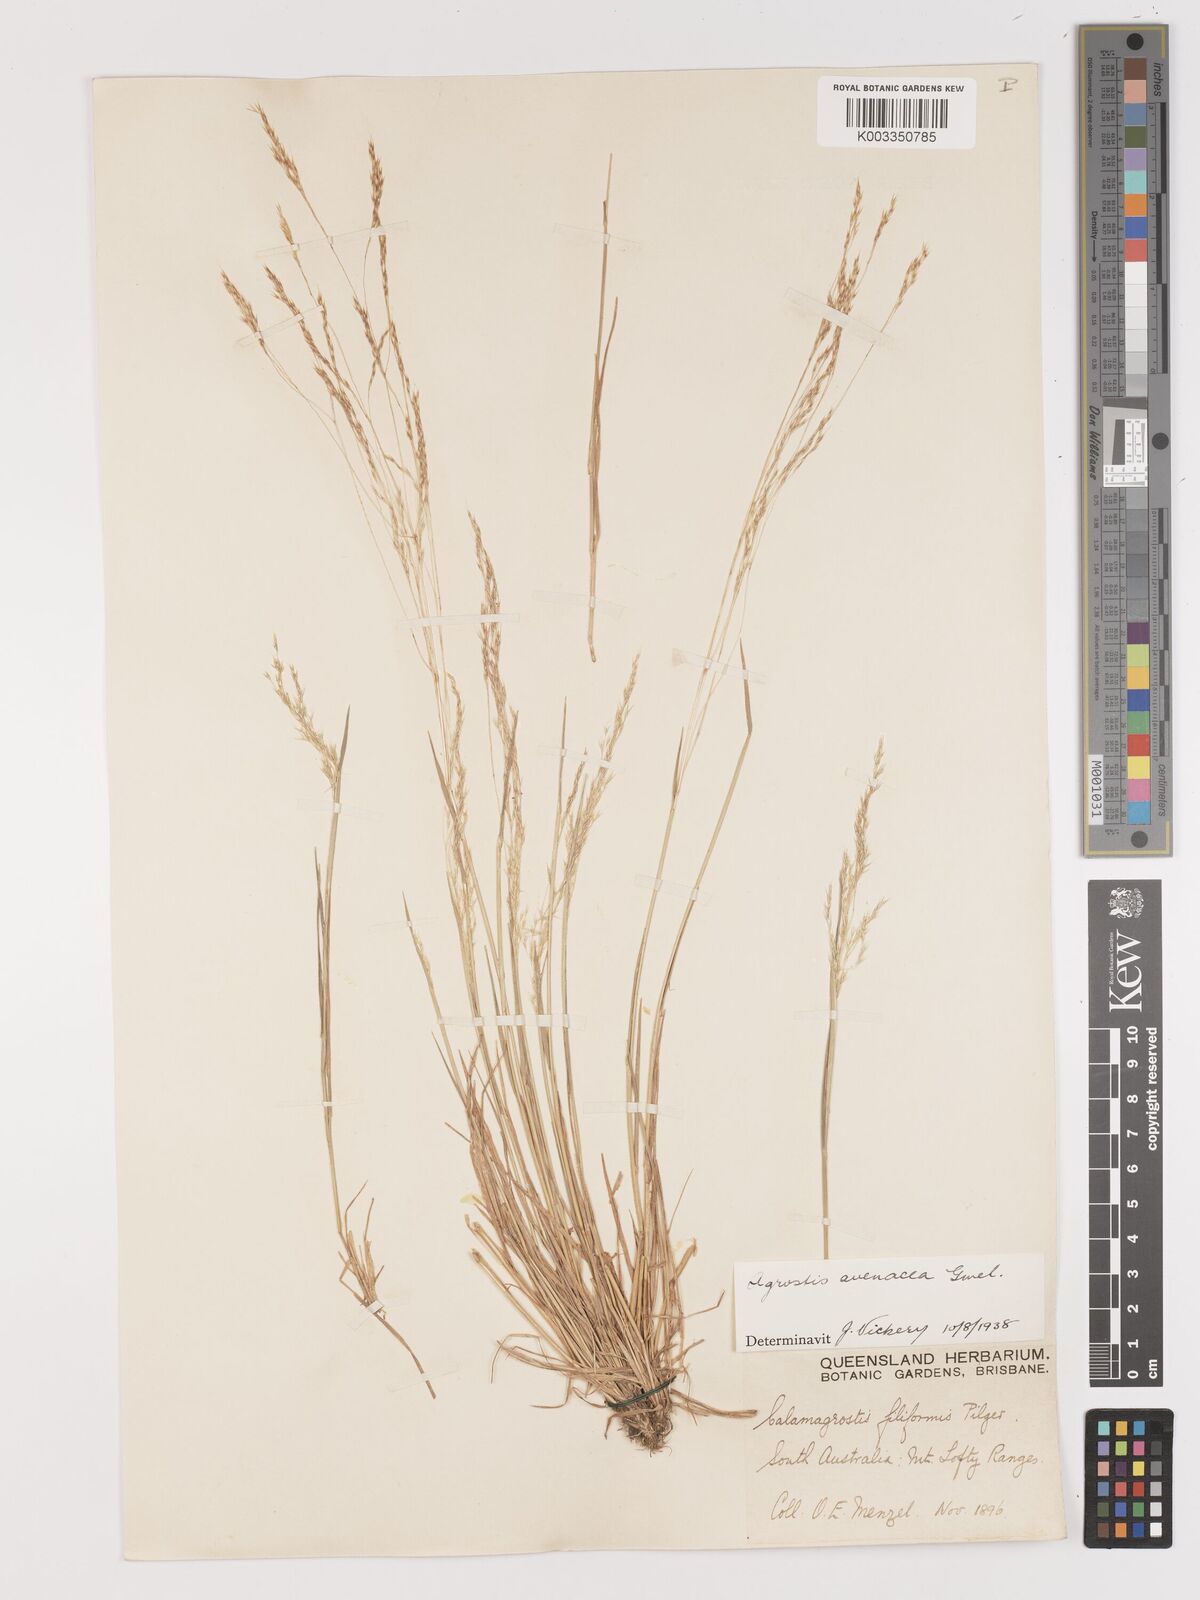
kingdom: Plantae
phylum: Tracheophyta
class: Liliopsida
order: Poales
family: Poaceae
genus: Lachnagrostis
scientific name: Lachnagrostis filiformis
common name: Bentgrass
